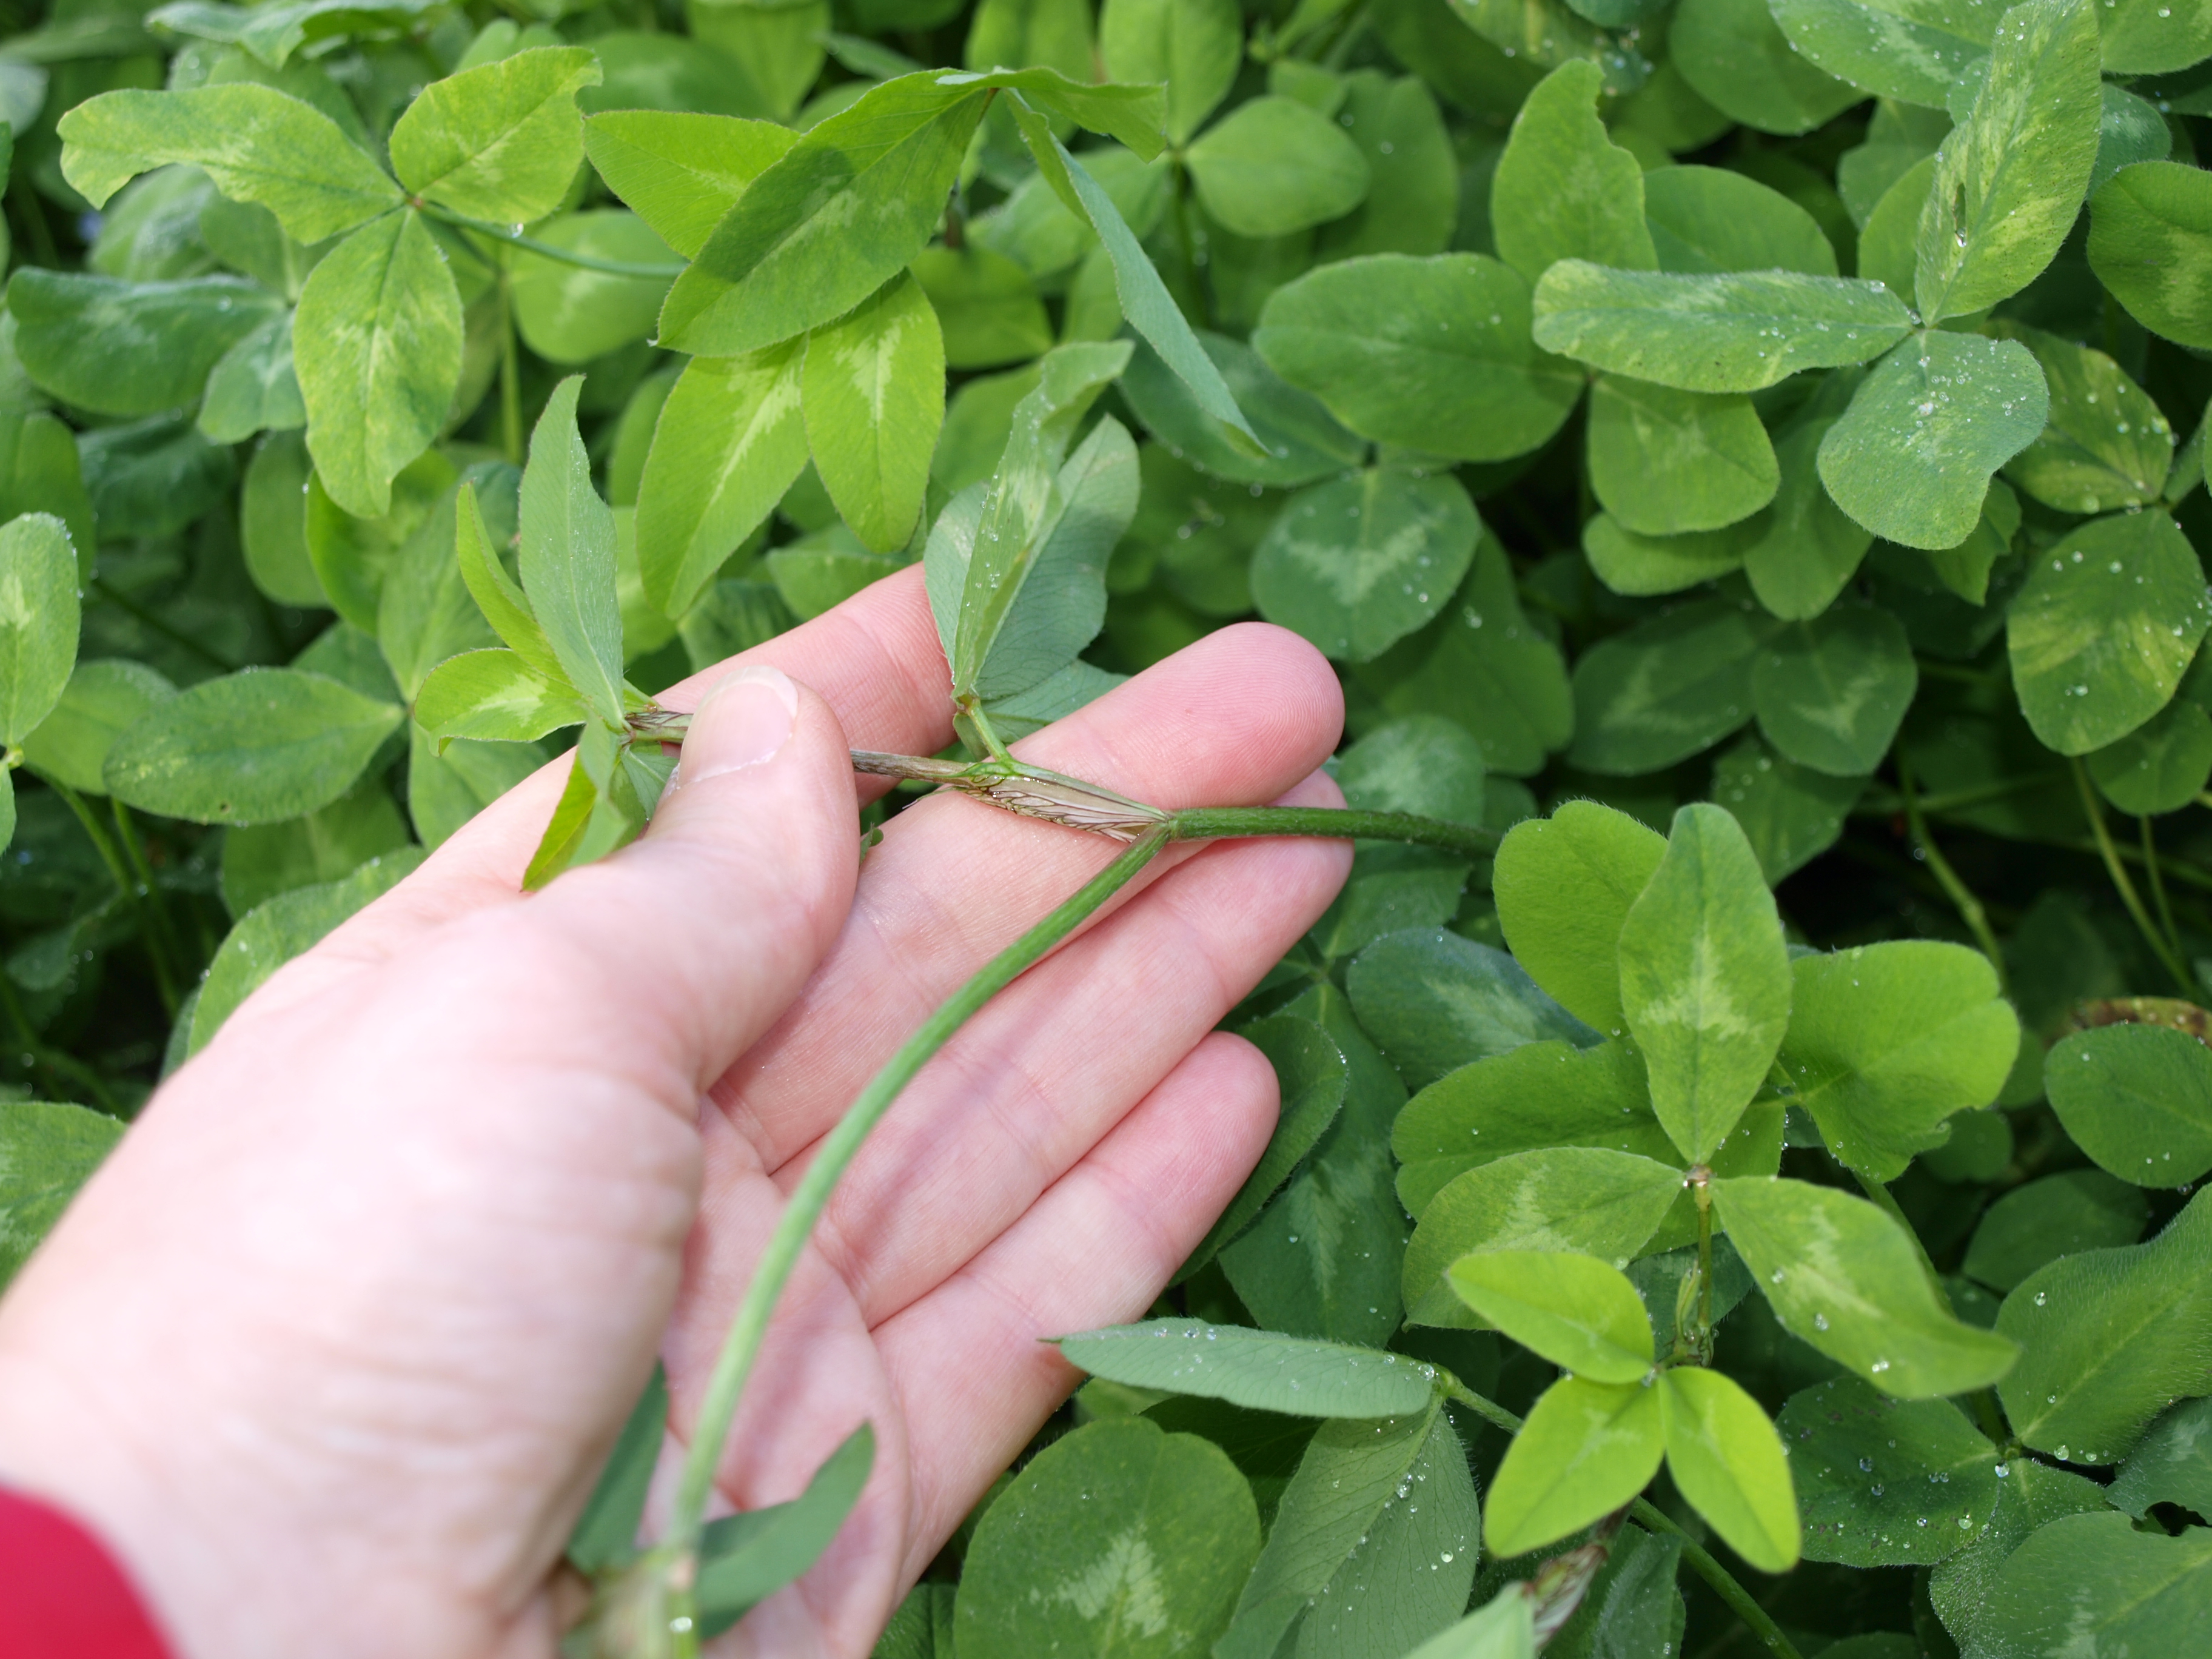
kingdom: Plantae
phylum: Tracheophyta
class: Magnoliopsida
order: Fabales
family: Fabaceae
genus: Trifolium
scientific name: Trifolium pratense
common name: Red clover
